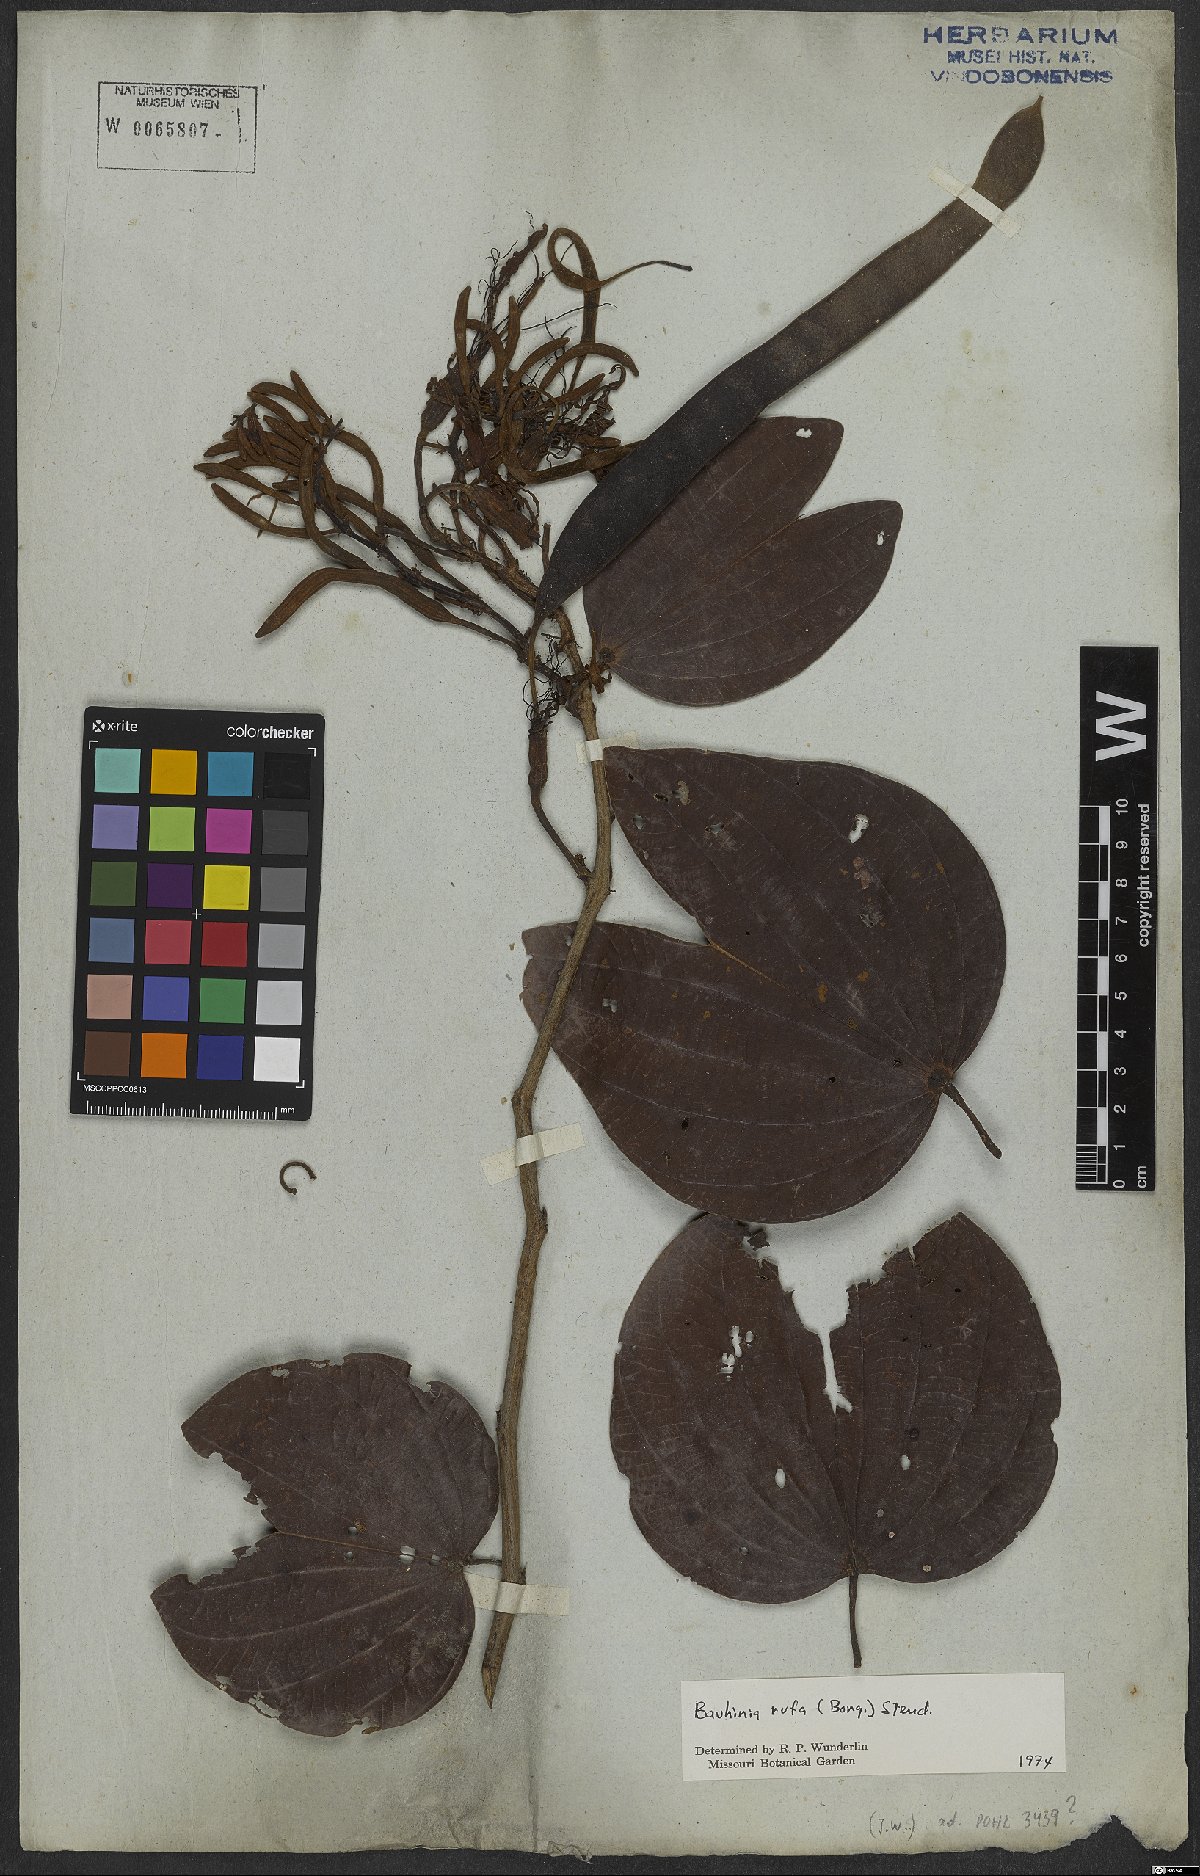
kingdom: Plantae
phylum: Tracheophyta
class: Magnoliopsida
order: Fabales
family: Fabaceae
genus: Bauhinia
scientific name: Bauhinia rufa
